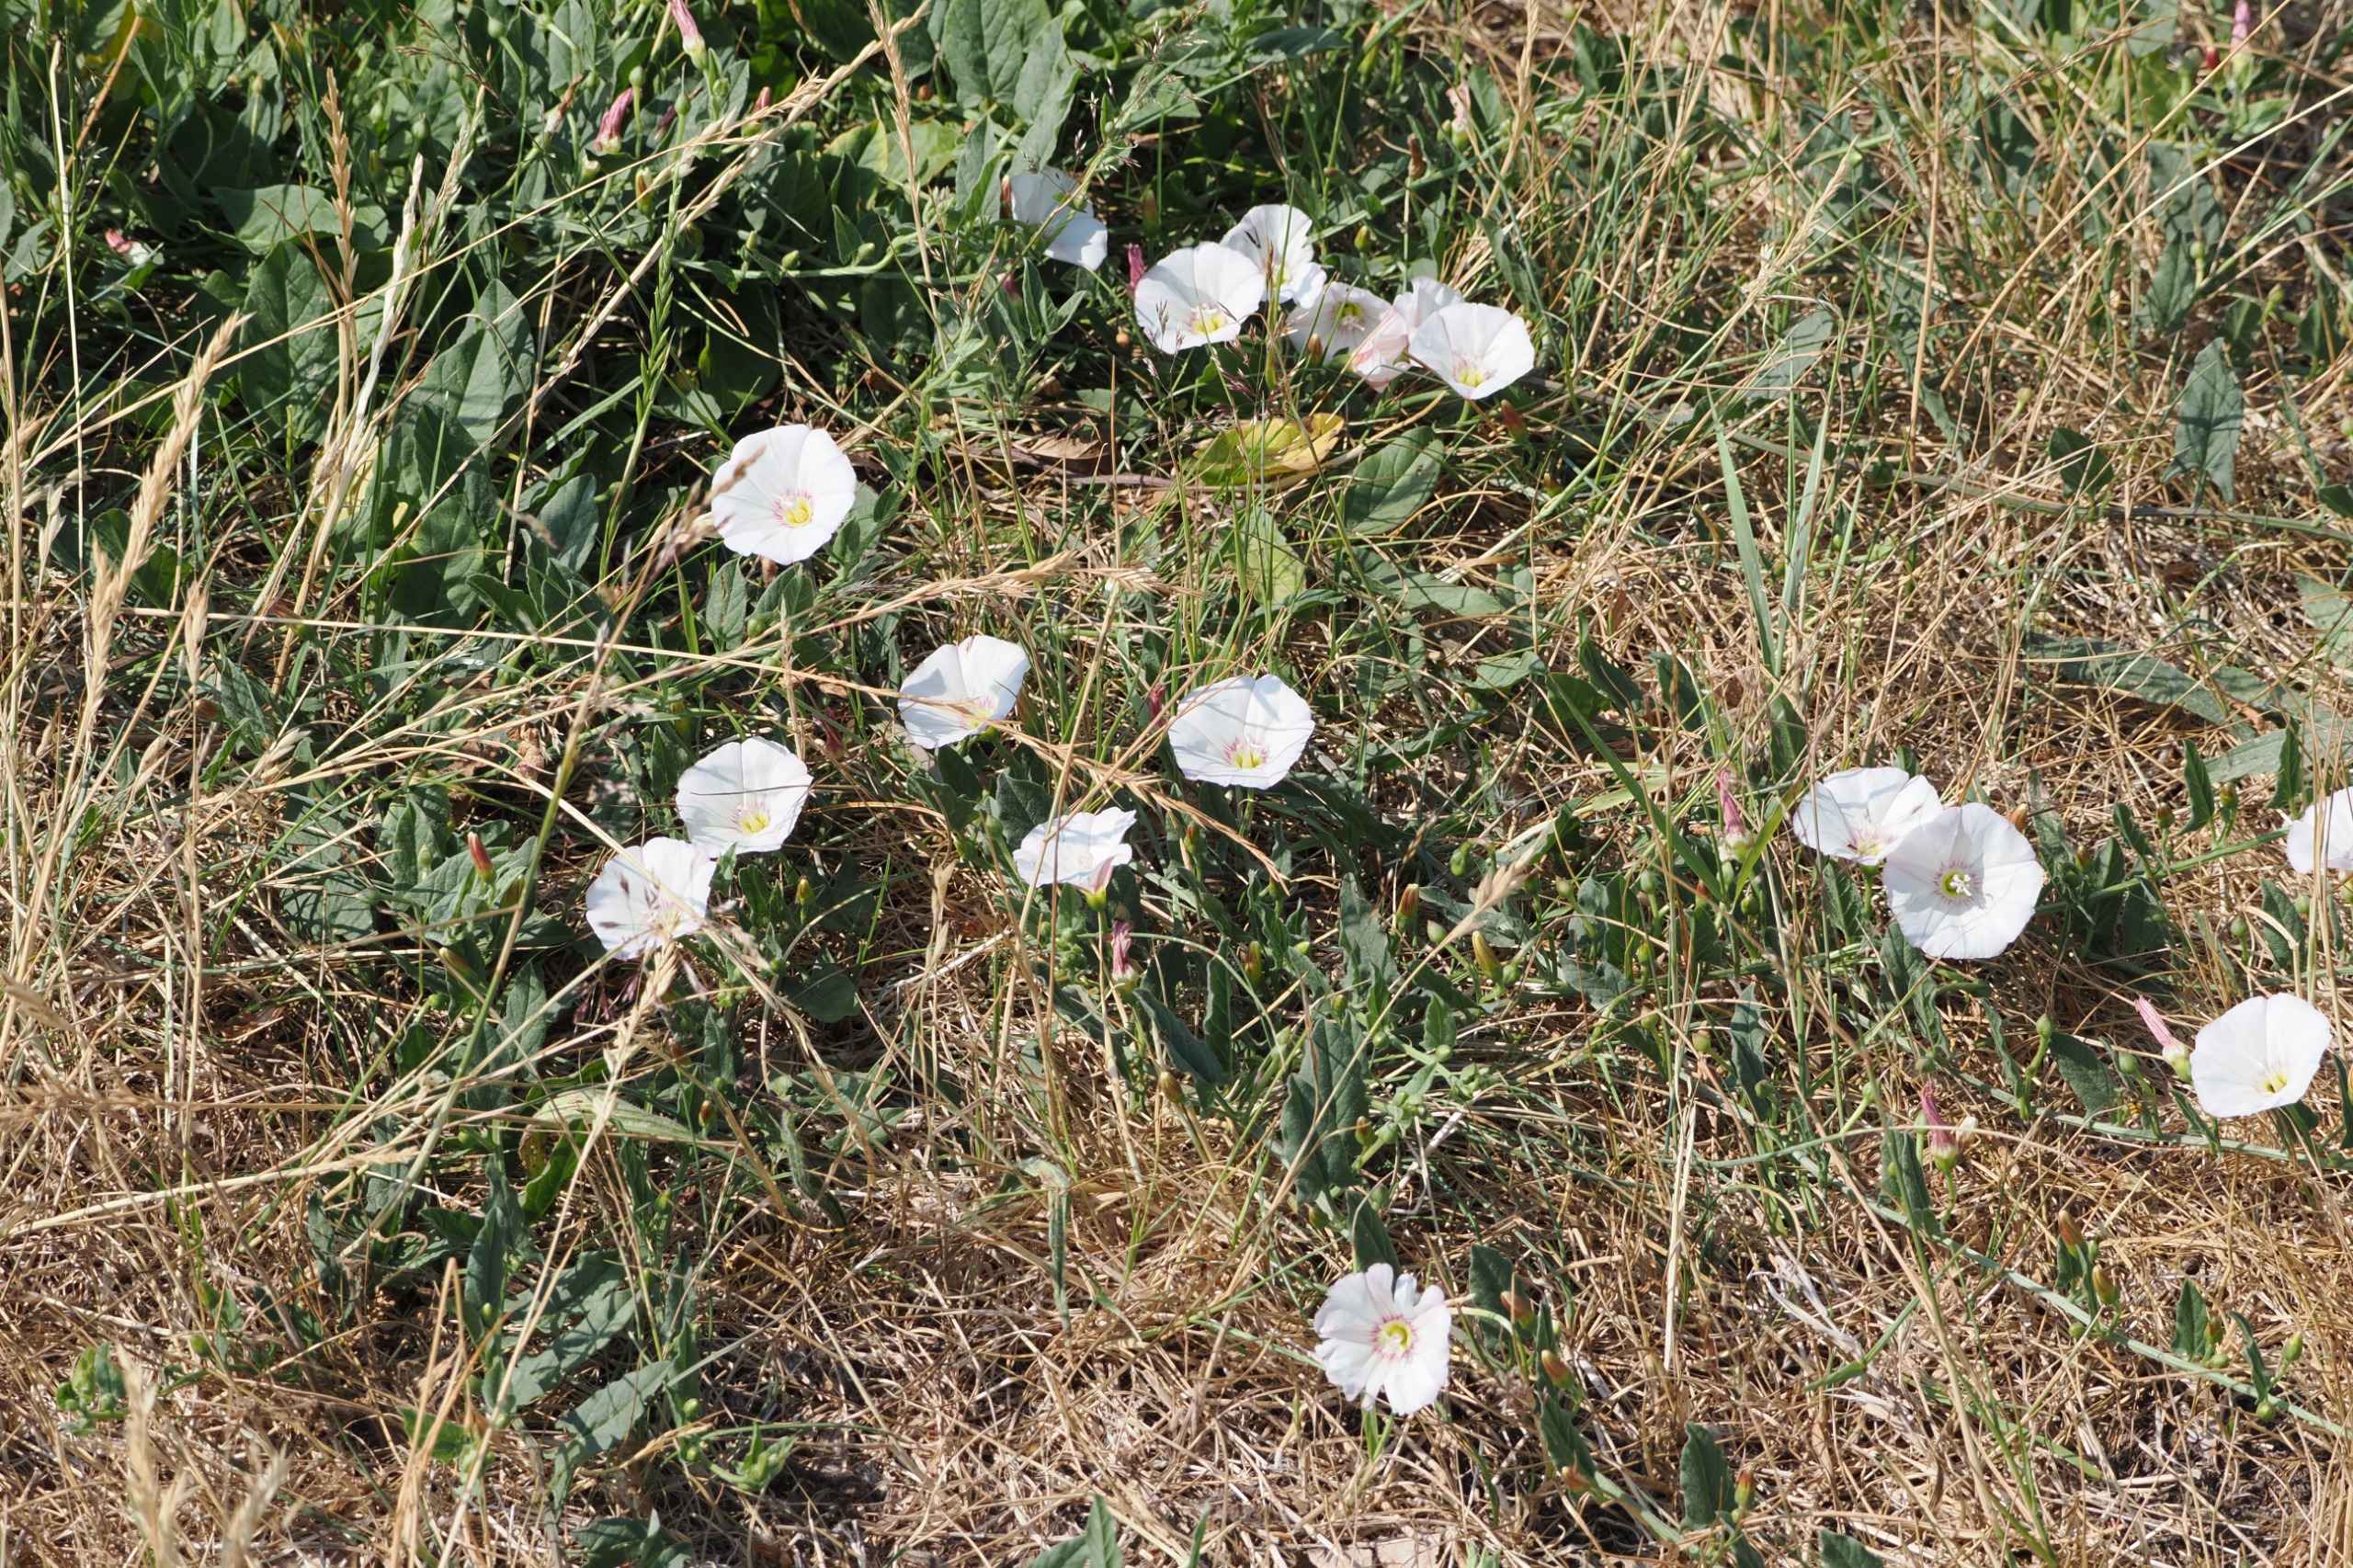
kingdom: Plantae
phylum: Tracheophyta
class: Magnoliopsida
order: Solanales
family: Convolvulaceae
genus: Convolvulus
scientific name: Convolvulus arvensis
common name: Ager-snerle
